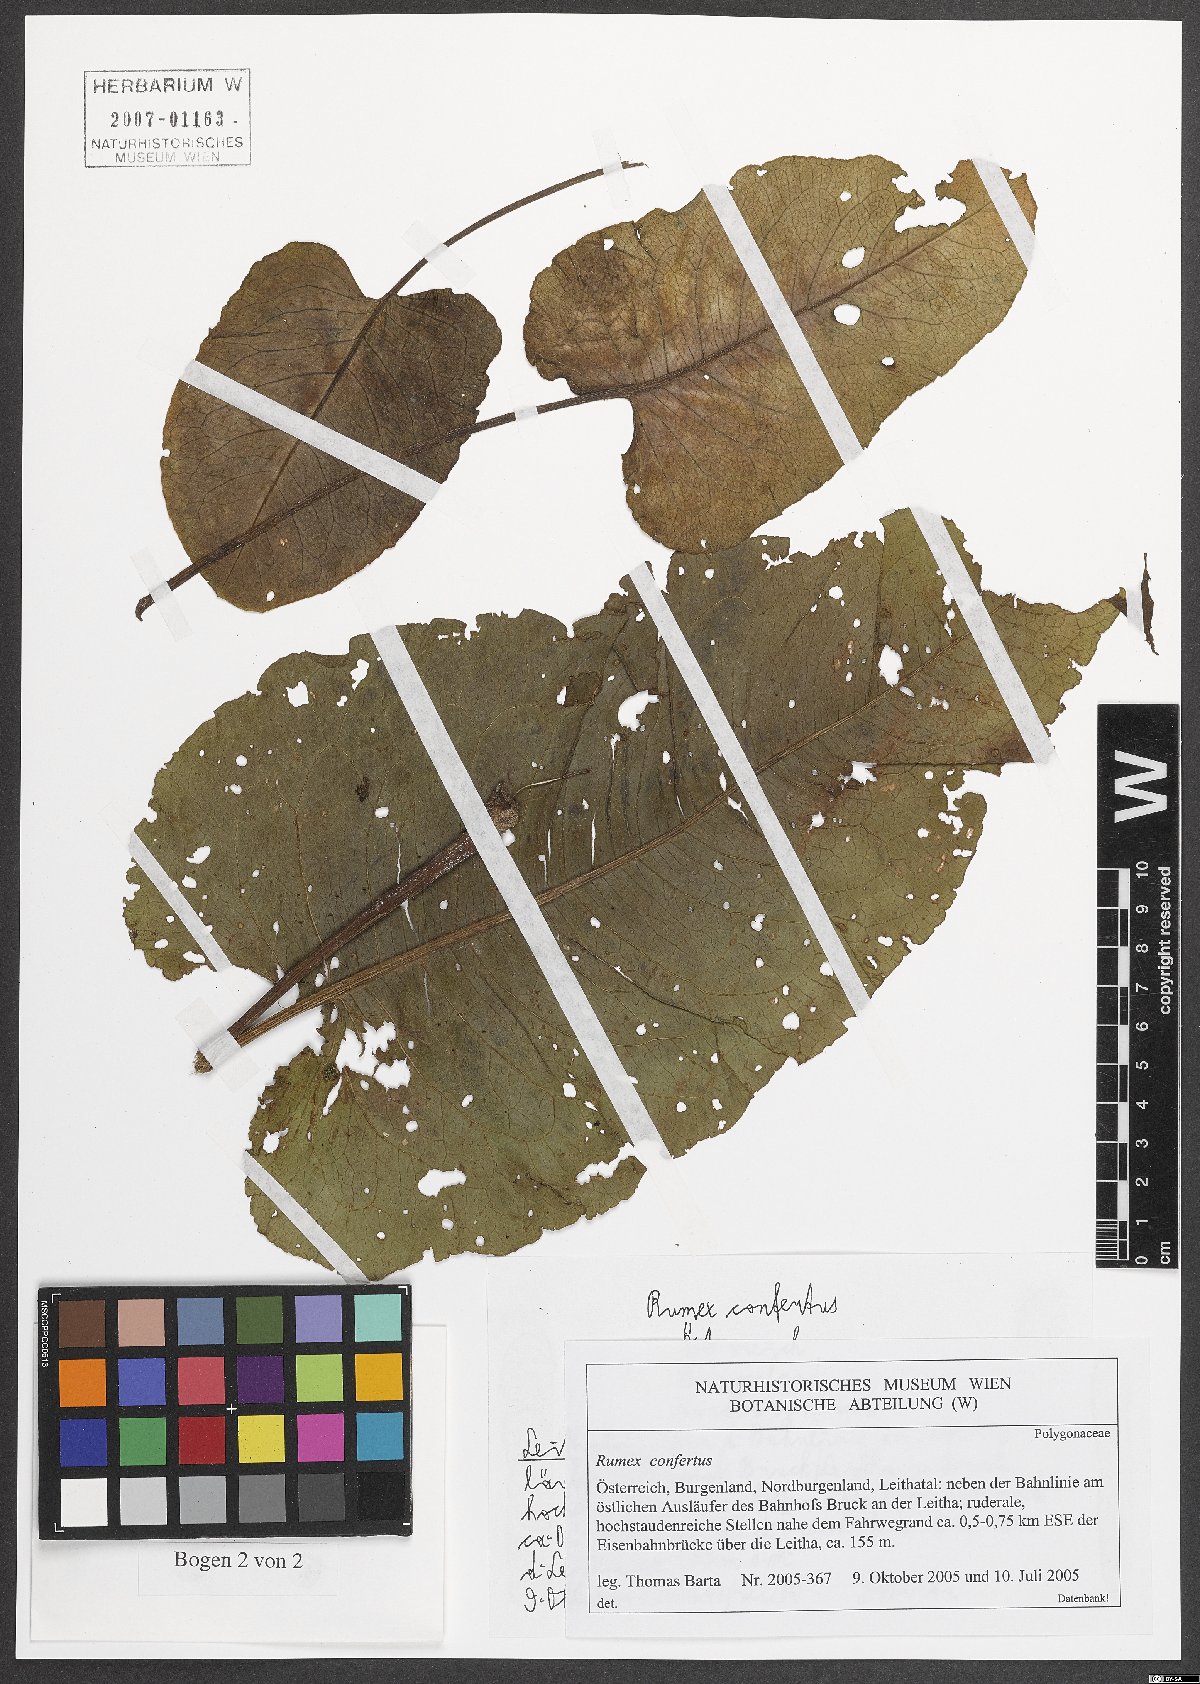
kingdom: Plantae
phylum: Tracheophyta
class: Magnoliopsida
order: Caryophyllales
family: Polygonaceae
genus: Rumex
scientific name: Rumex confertus
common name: Russian dock
